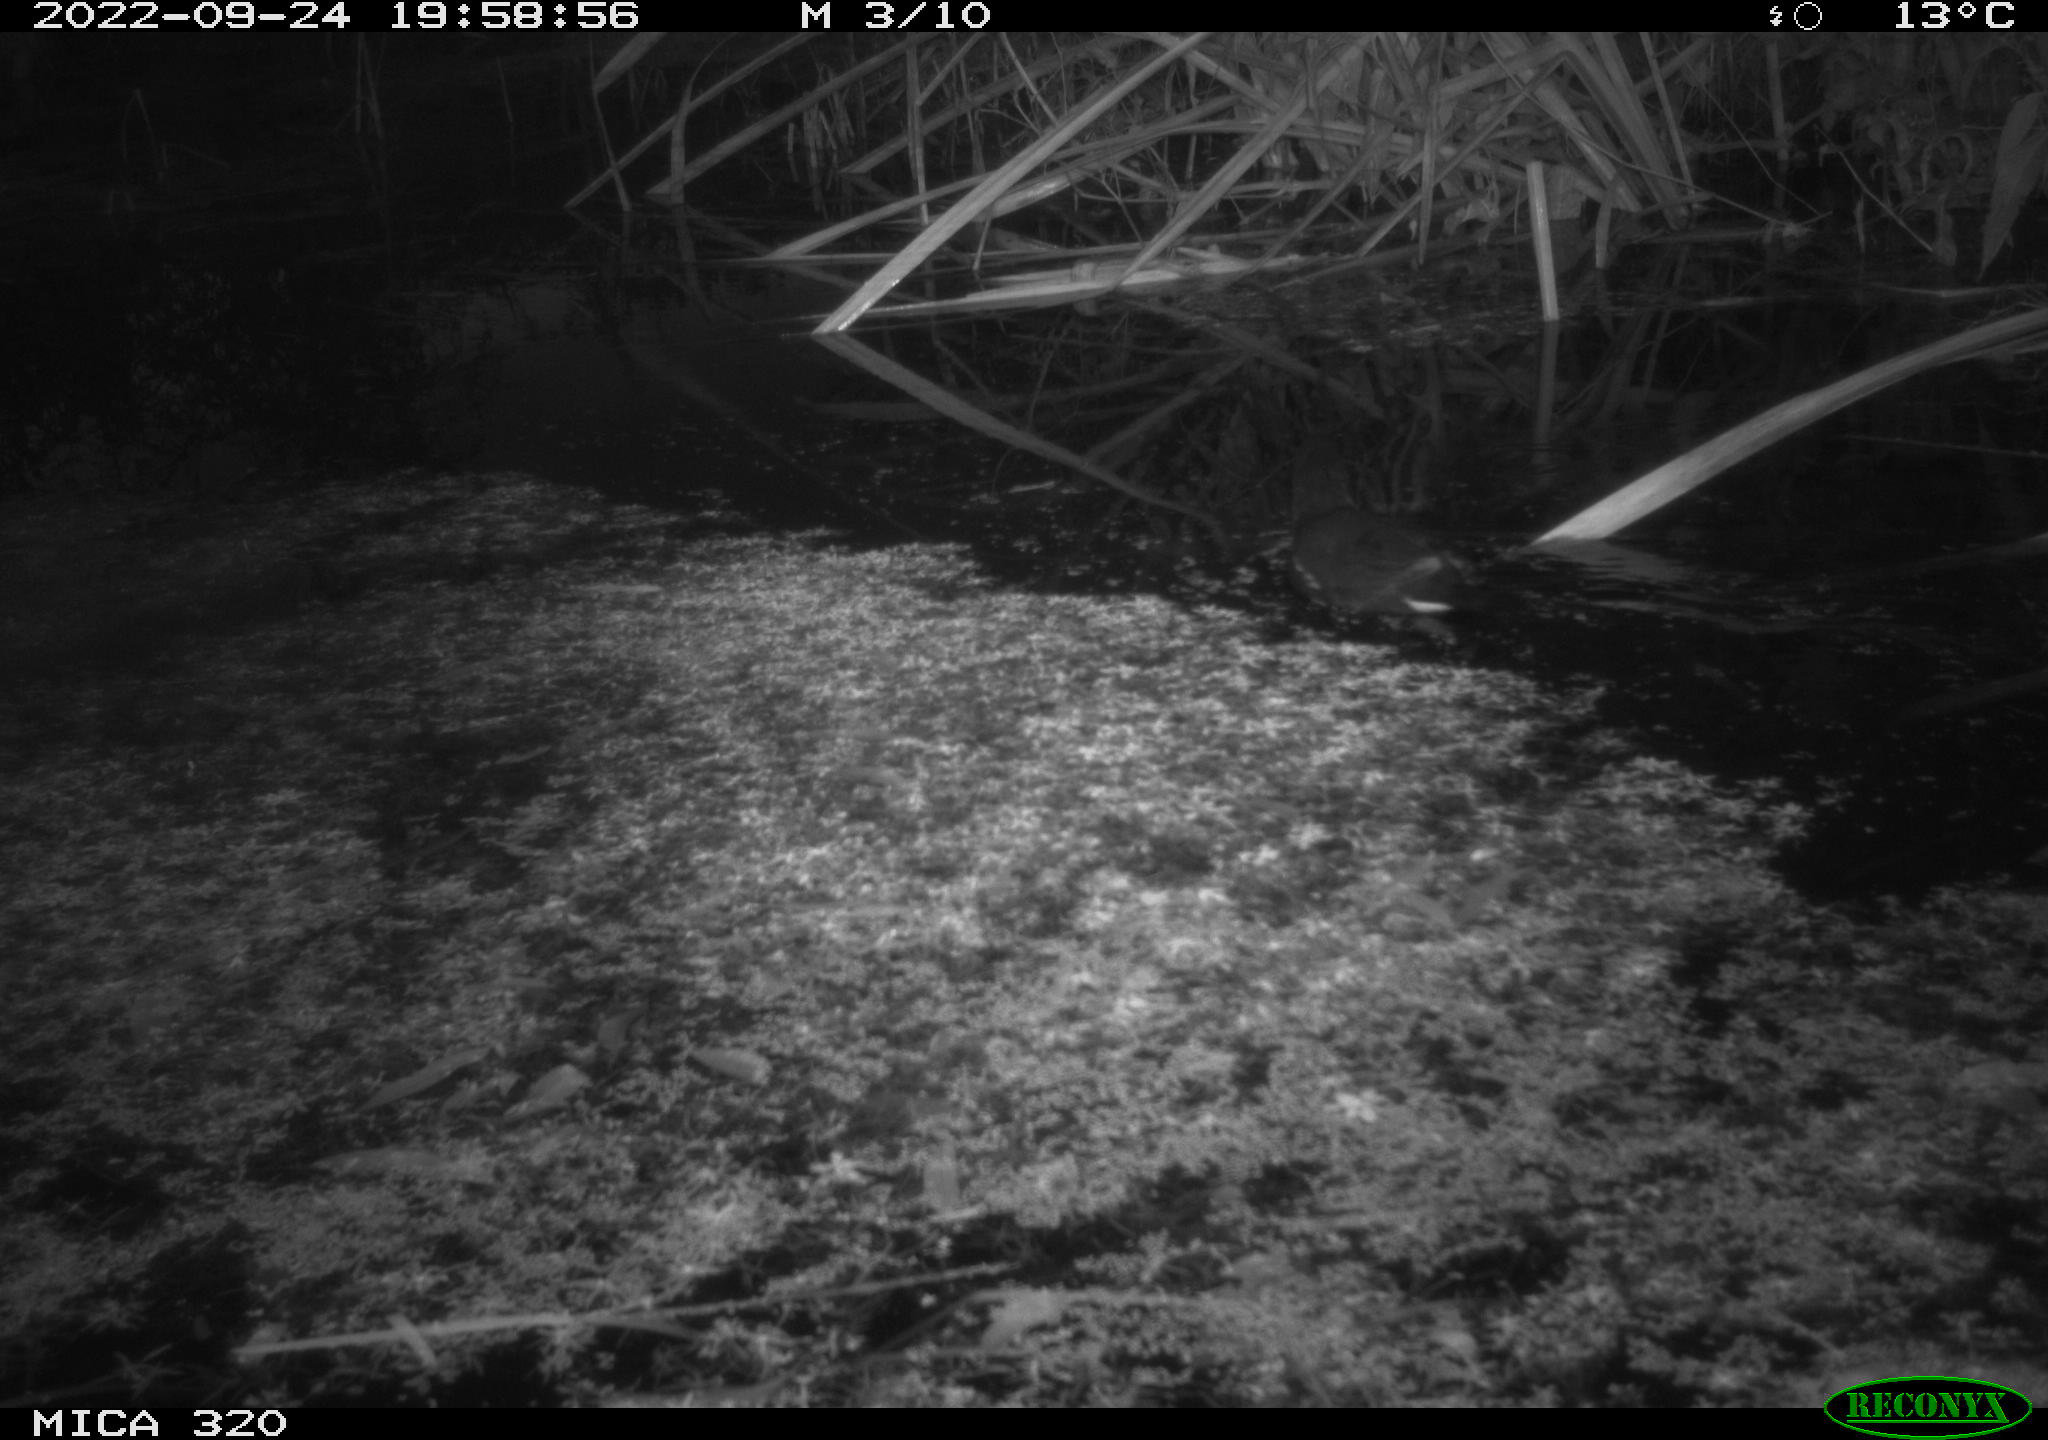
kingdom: Animalia
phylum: Chordata
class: Aves
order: Gruiformes
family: Rallidae
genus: Gallinula
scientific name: Gallinula chloropus
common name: Common moorhen
